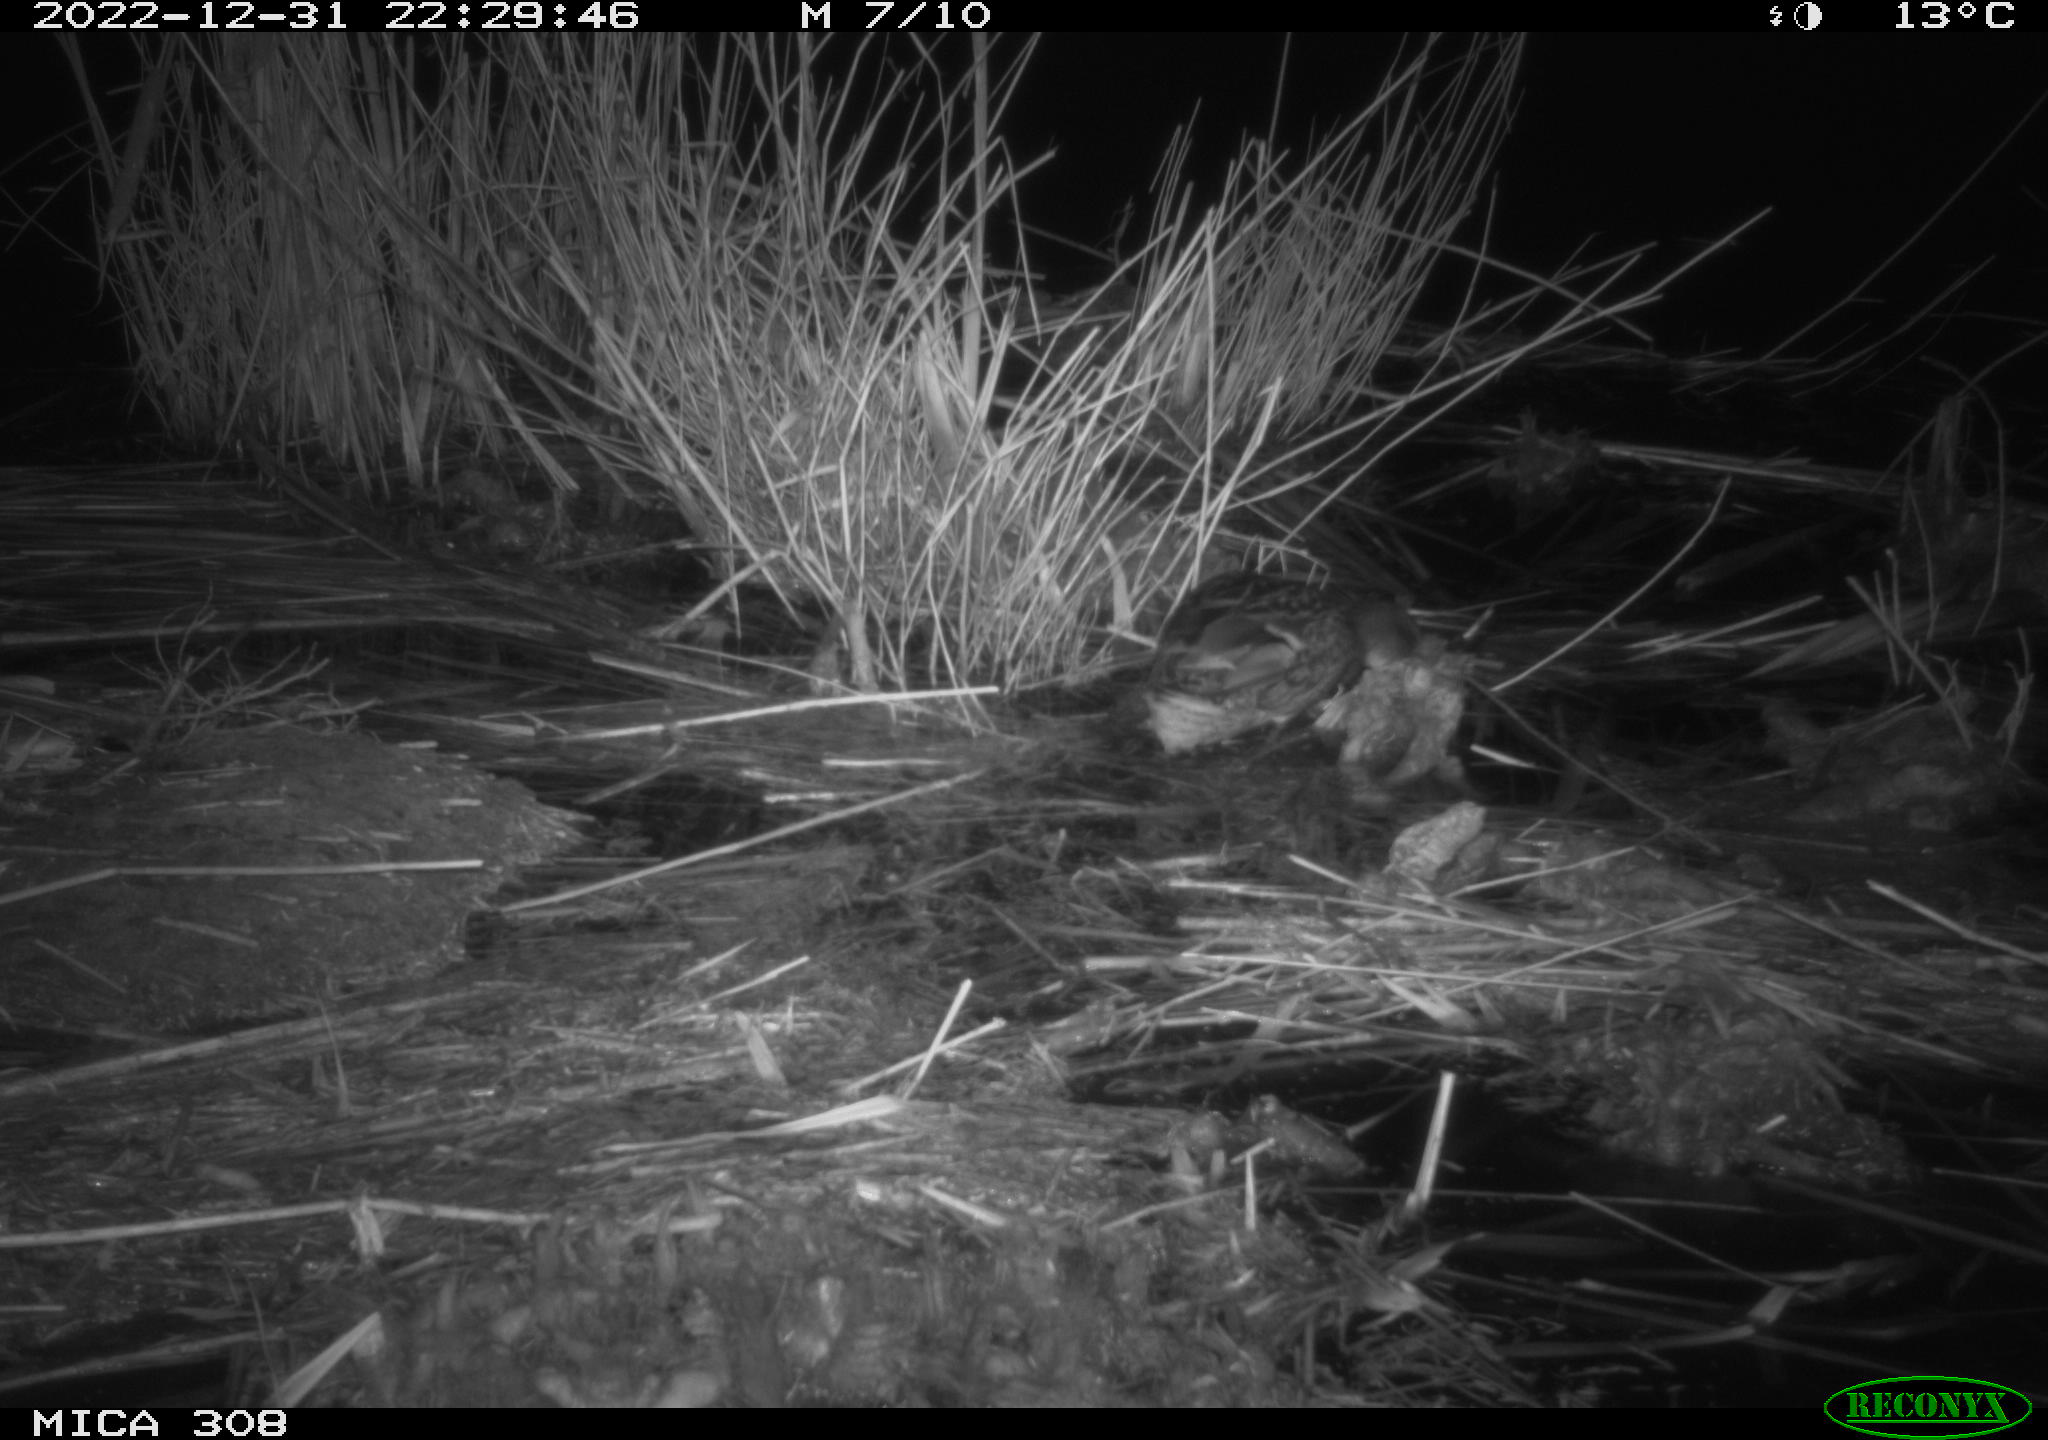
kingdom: Animalia
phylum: Chordata
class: Aves
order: Anseriformes
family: Anatidae
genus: Anas
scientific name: Anas
